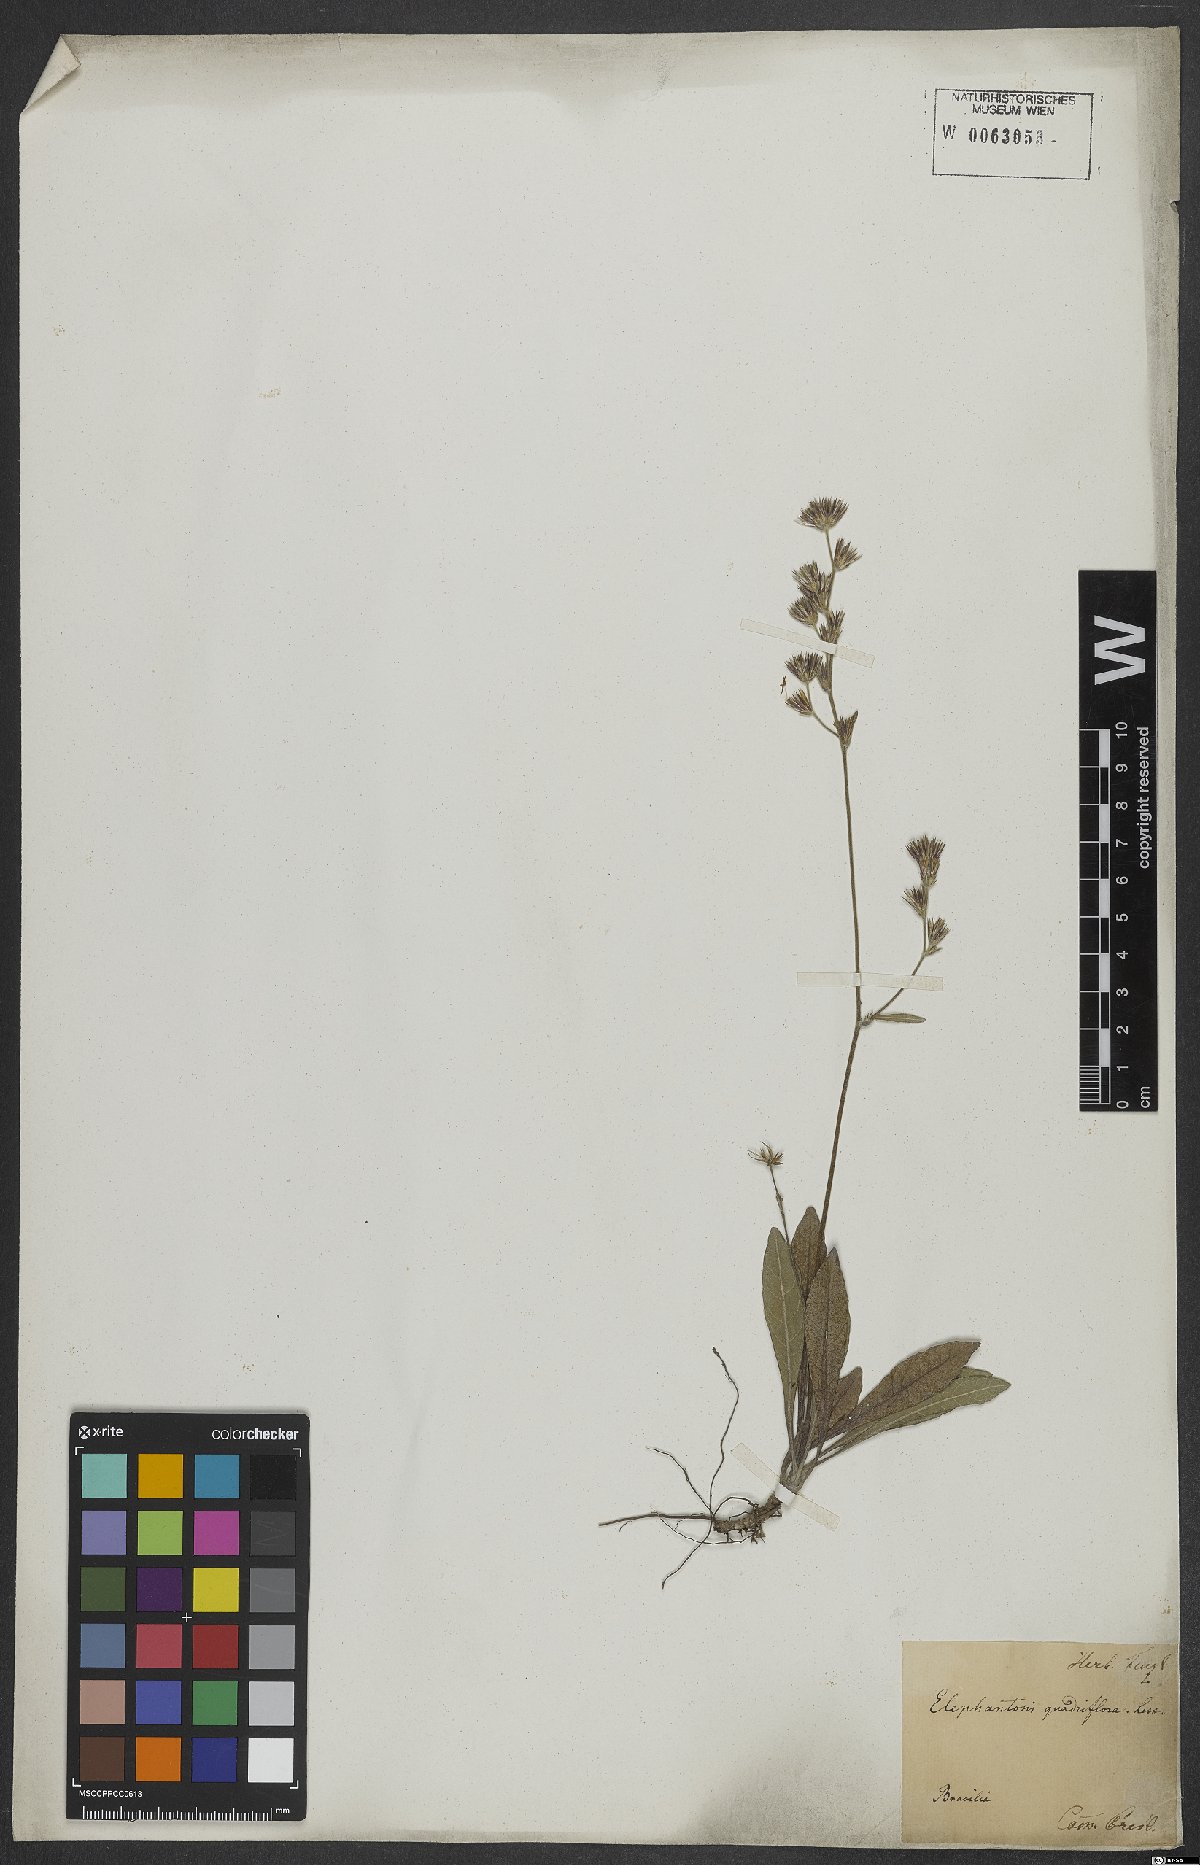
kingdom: Plantae
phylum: Tracheophyta
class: Magnoliopsida
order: Asterales
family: Asteraceae
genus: Elephantopus
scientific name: Elephantopus riparius
